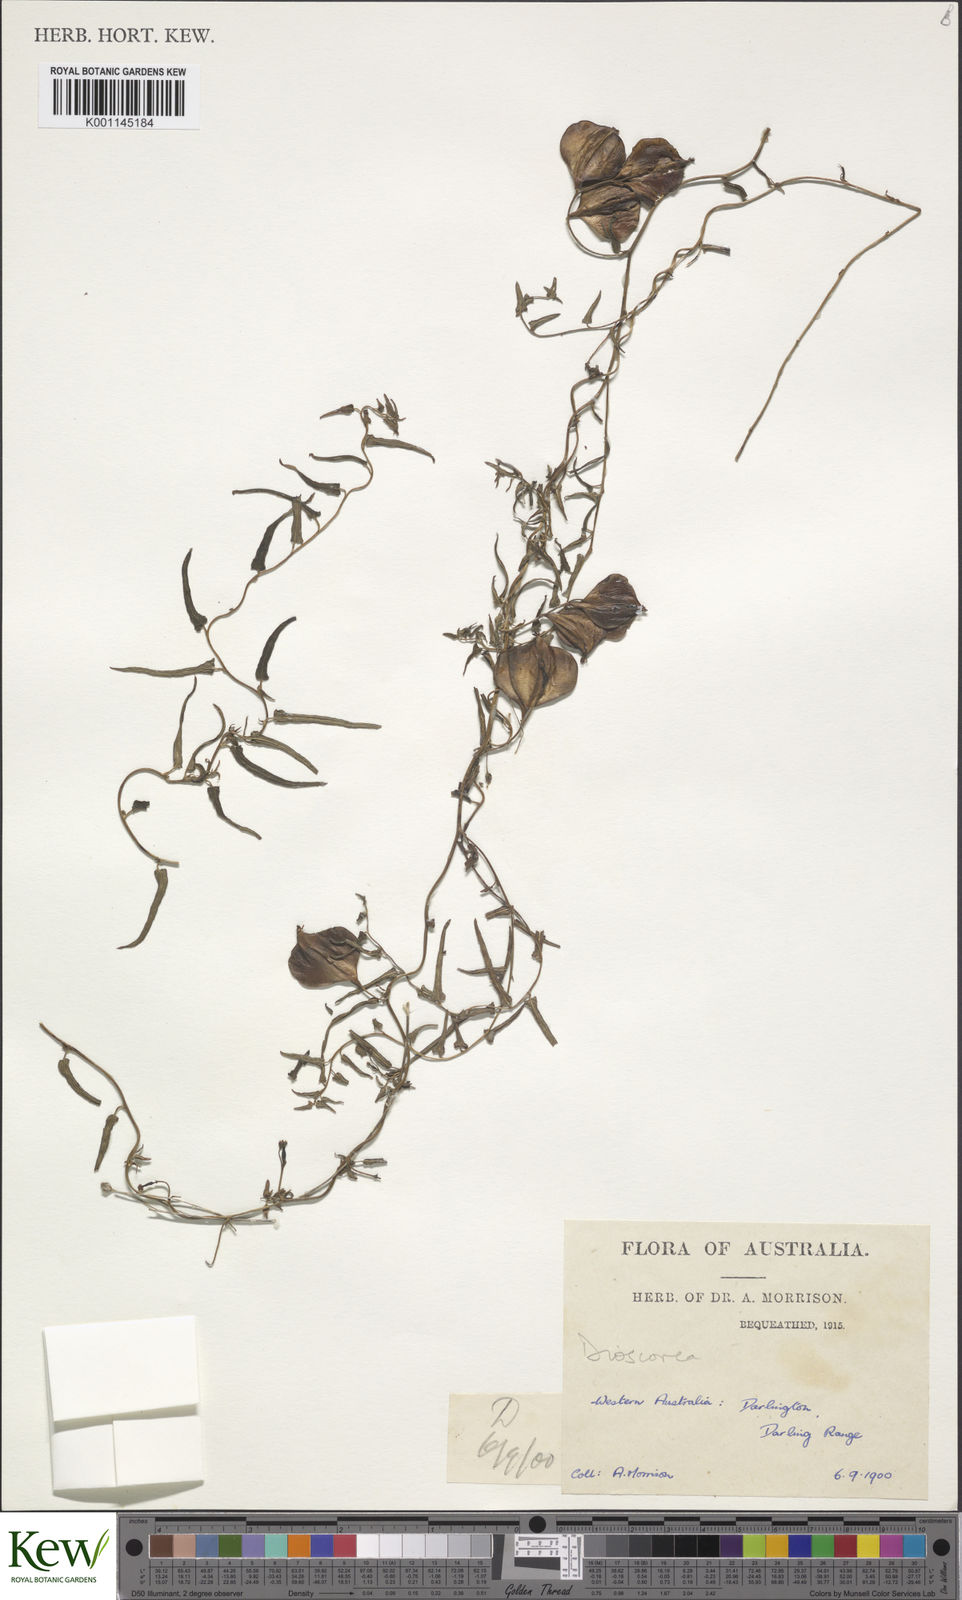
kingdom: Plantae
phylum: Tracheophyta
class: Liliopsida
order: Dioscoreales
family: Dioscoreaceae
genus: Dioscorea
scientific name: Dioscorea
